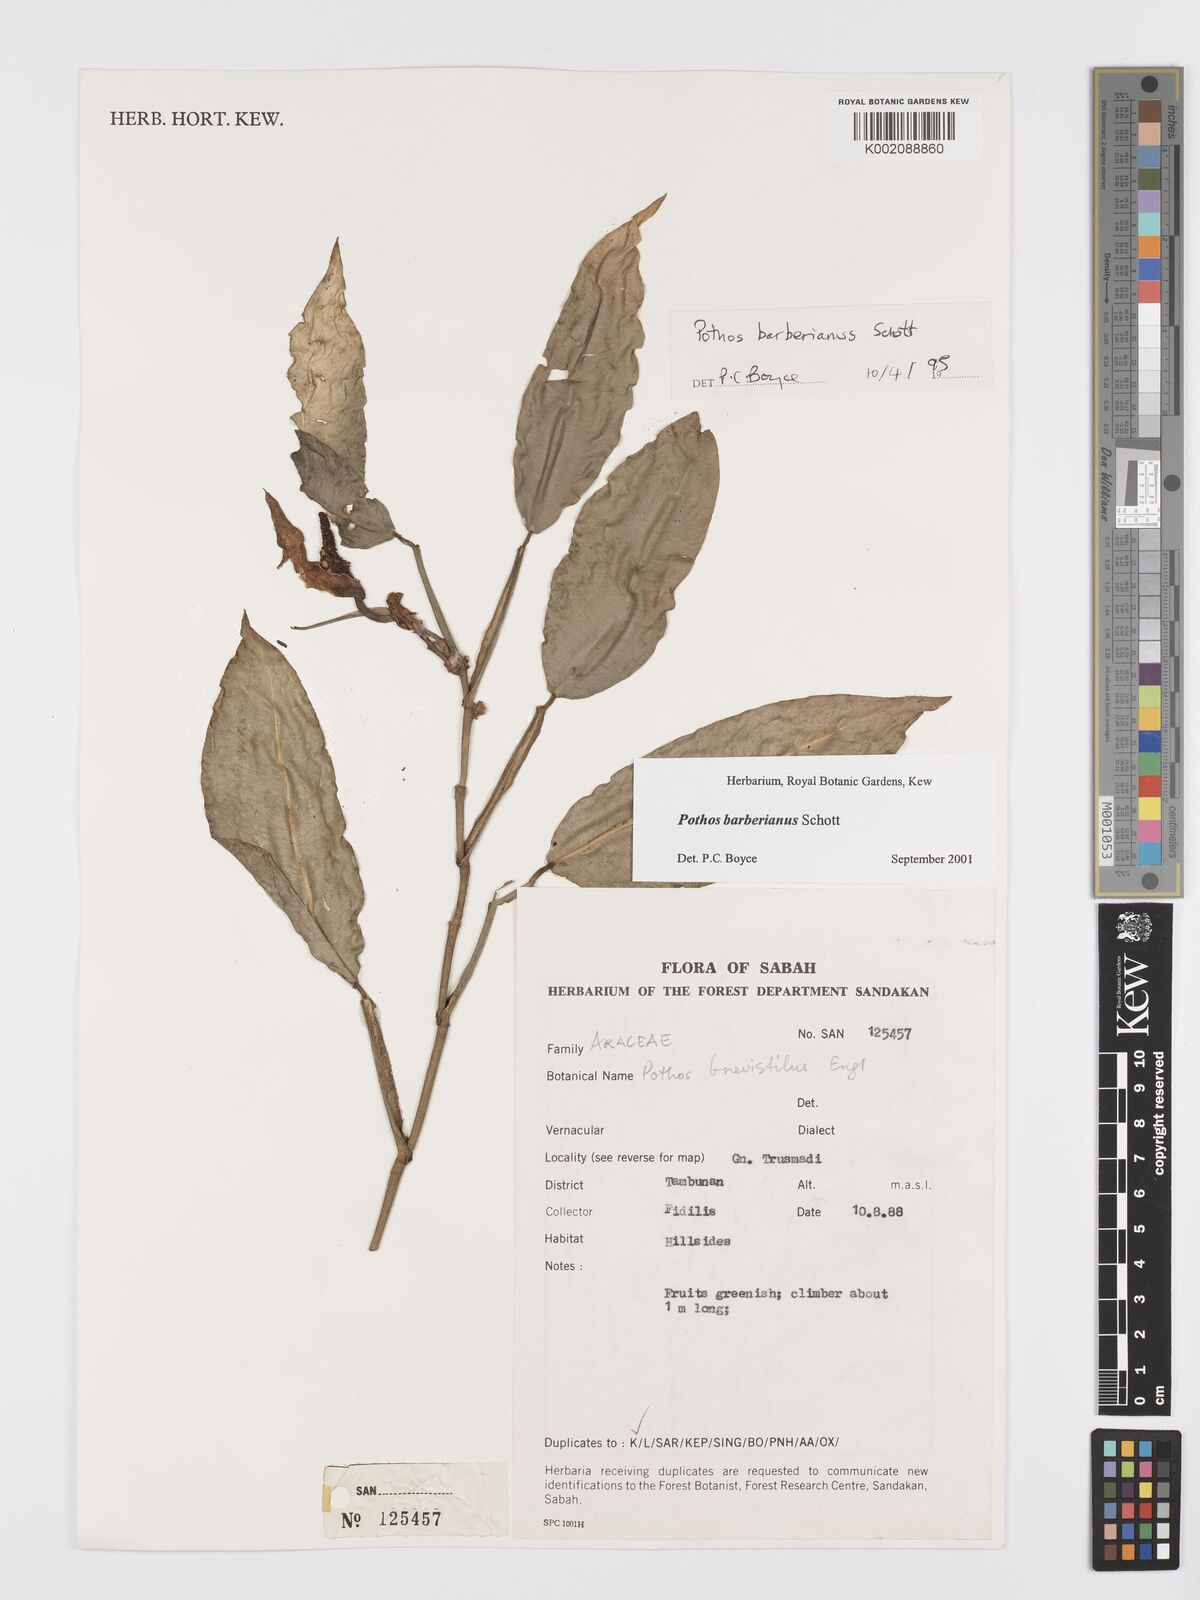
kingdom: Plantae
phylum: Tracheophyta
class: Liliopsida
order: Alismatales
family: Araceae
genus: Pothos
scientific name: Pothos barberianus
